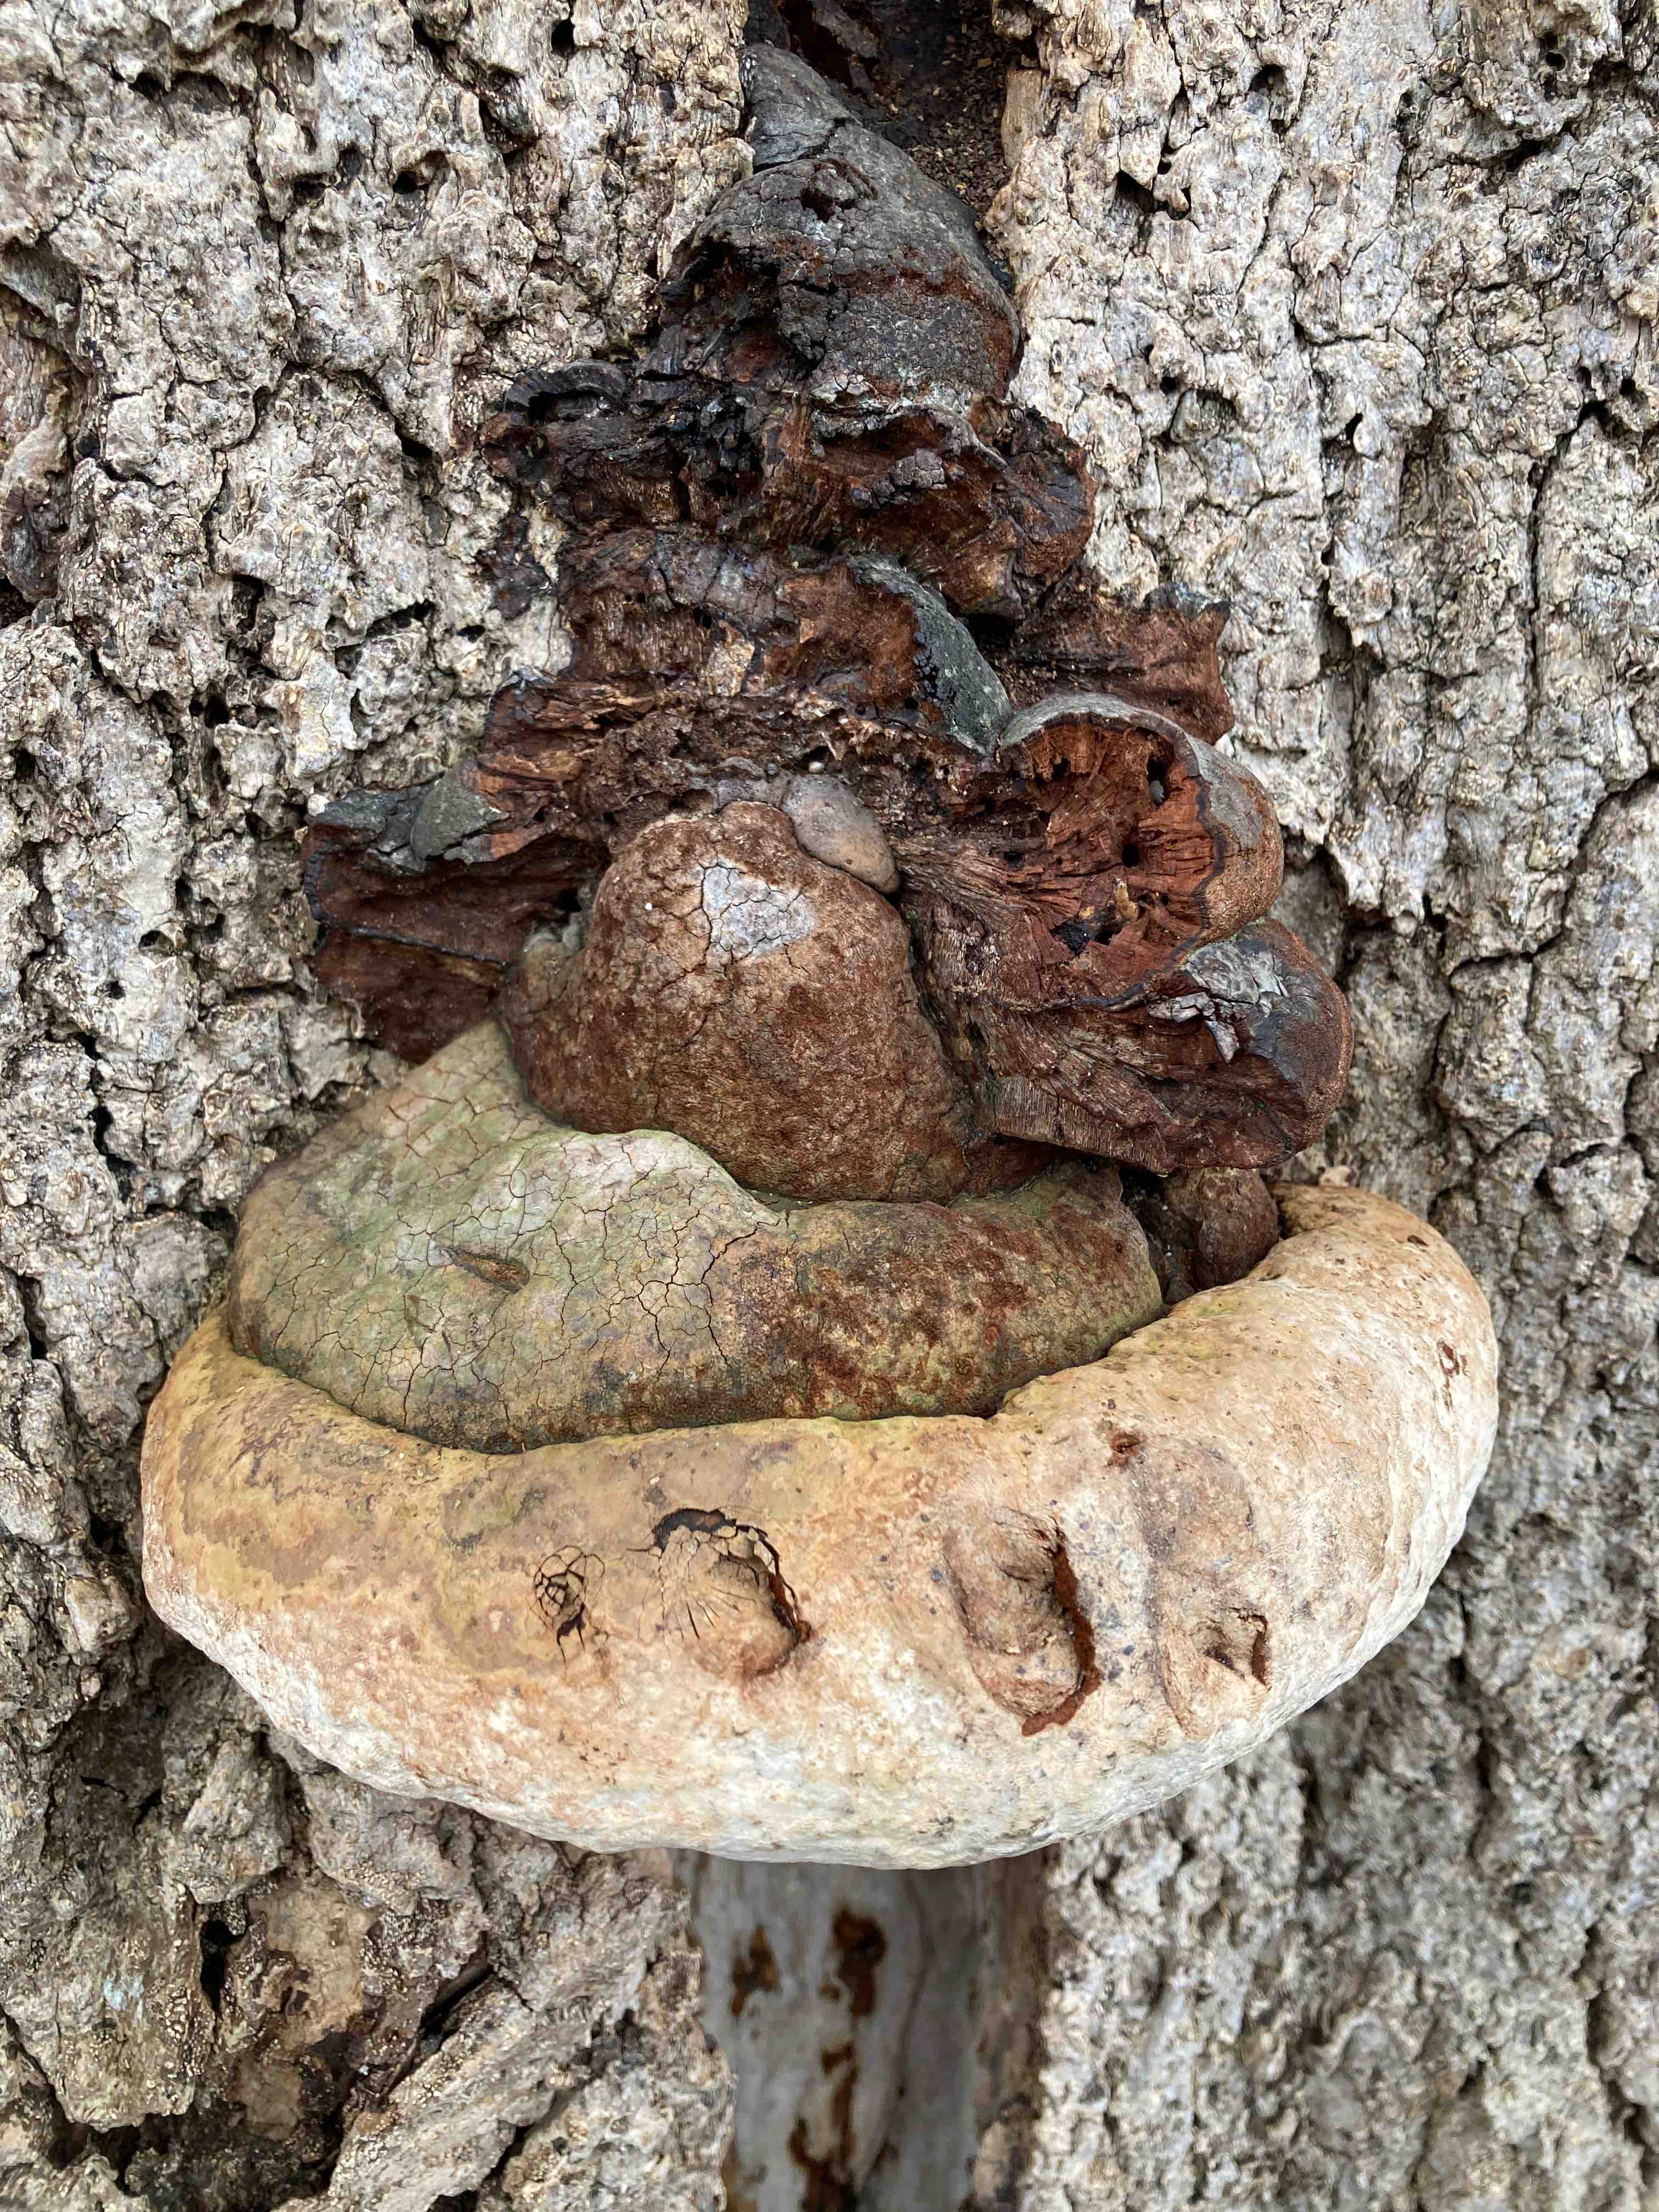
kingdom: Fungi
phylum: Basidiomycota
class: Agaricomycetes
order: Polyporales
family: Polyporaceae
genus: Ganoderma
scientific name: Ganoderma adspersum
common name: grov lakporesvamp
